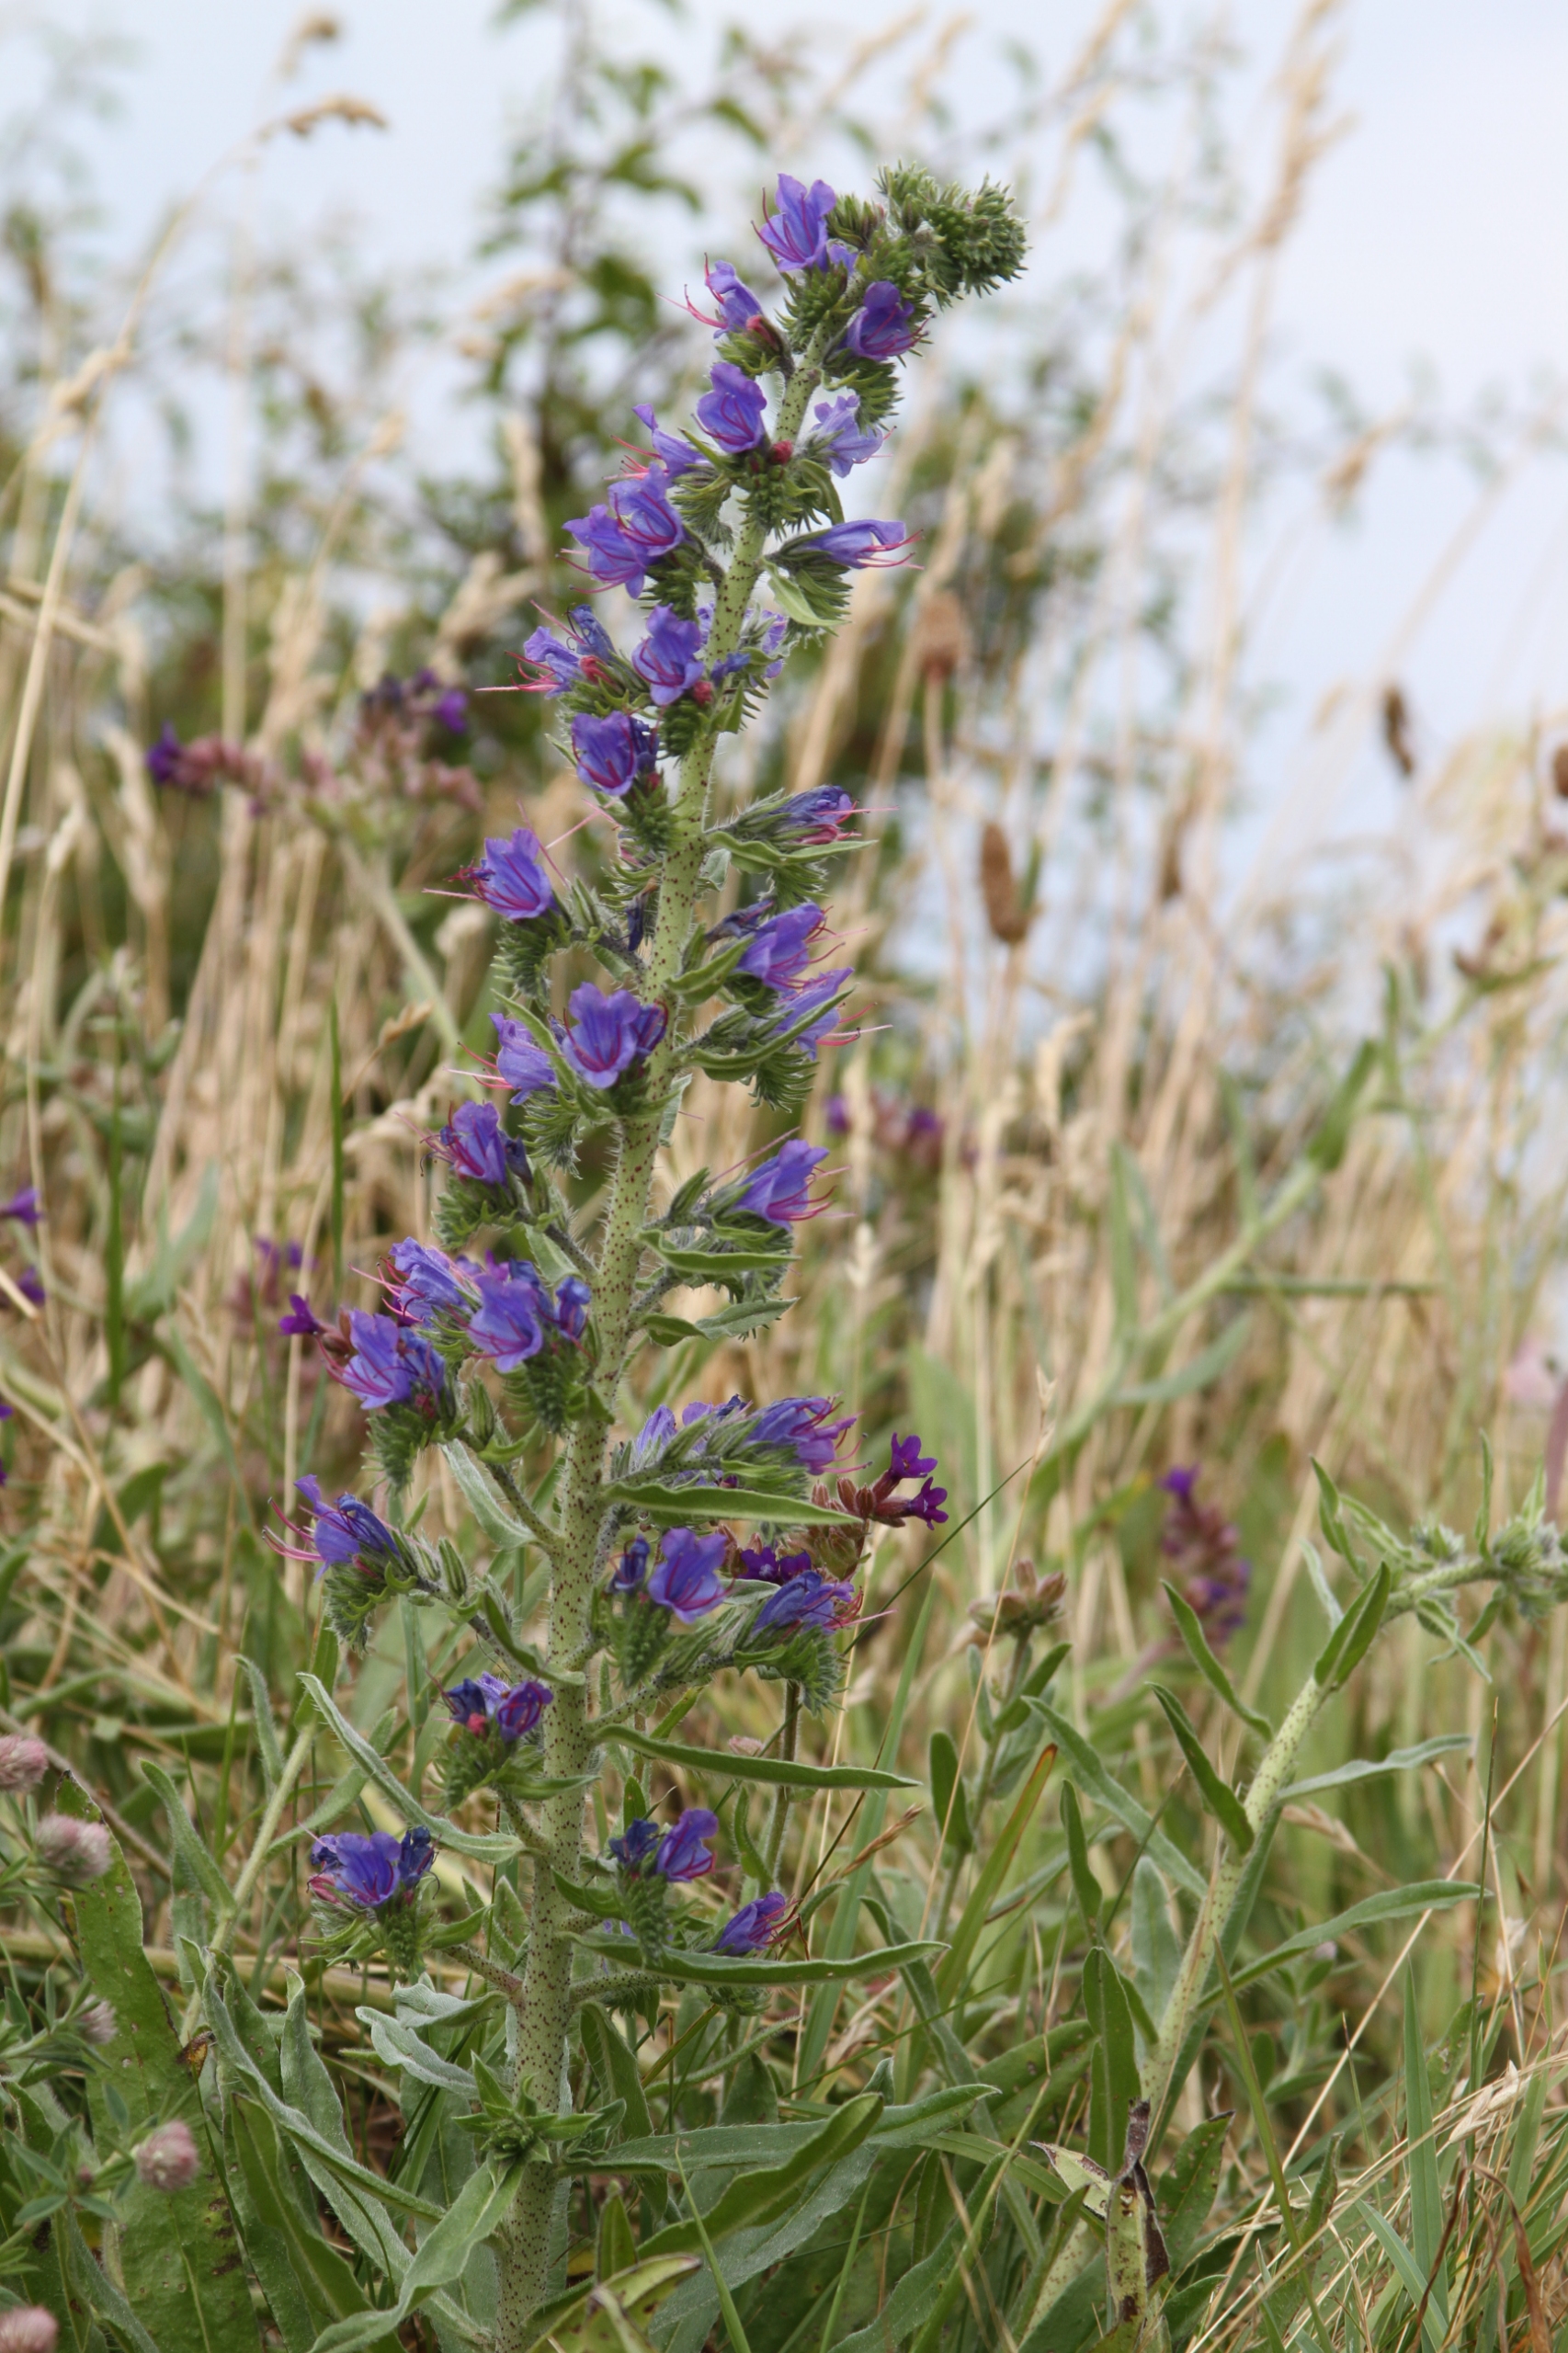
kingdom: Plantae
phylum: Tracheophyta
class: Magnoliopsida
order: Boraginales
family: Boraginaceae
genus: Echium
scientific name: Echium vulgare
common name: Slangehoved
